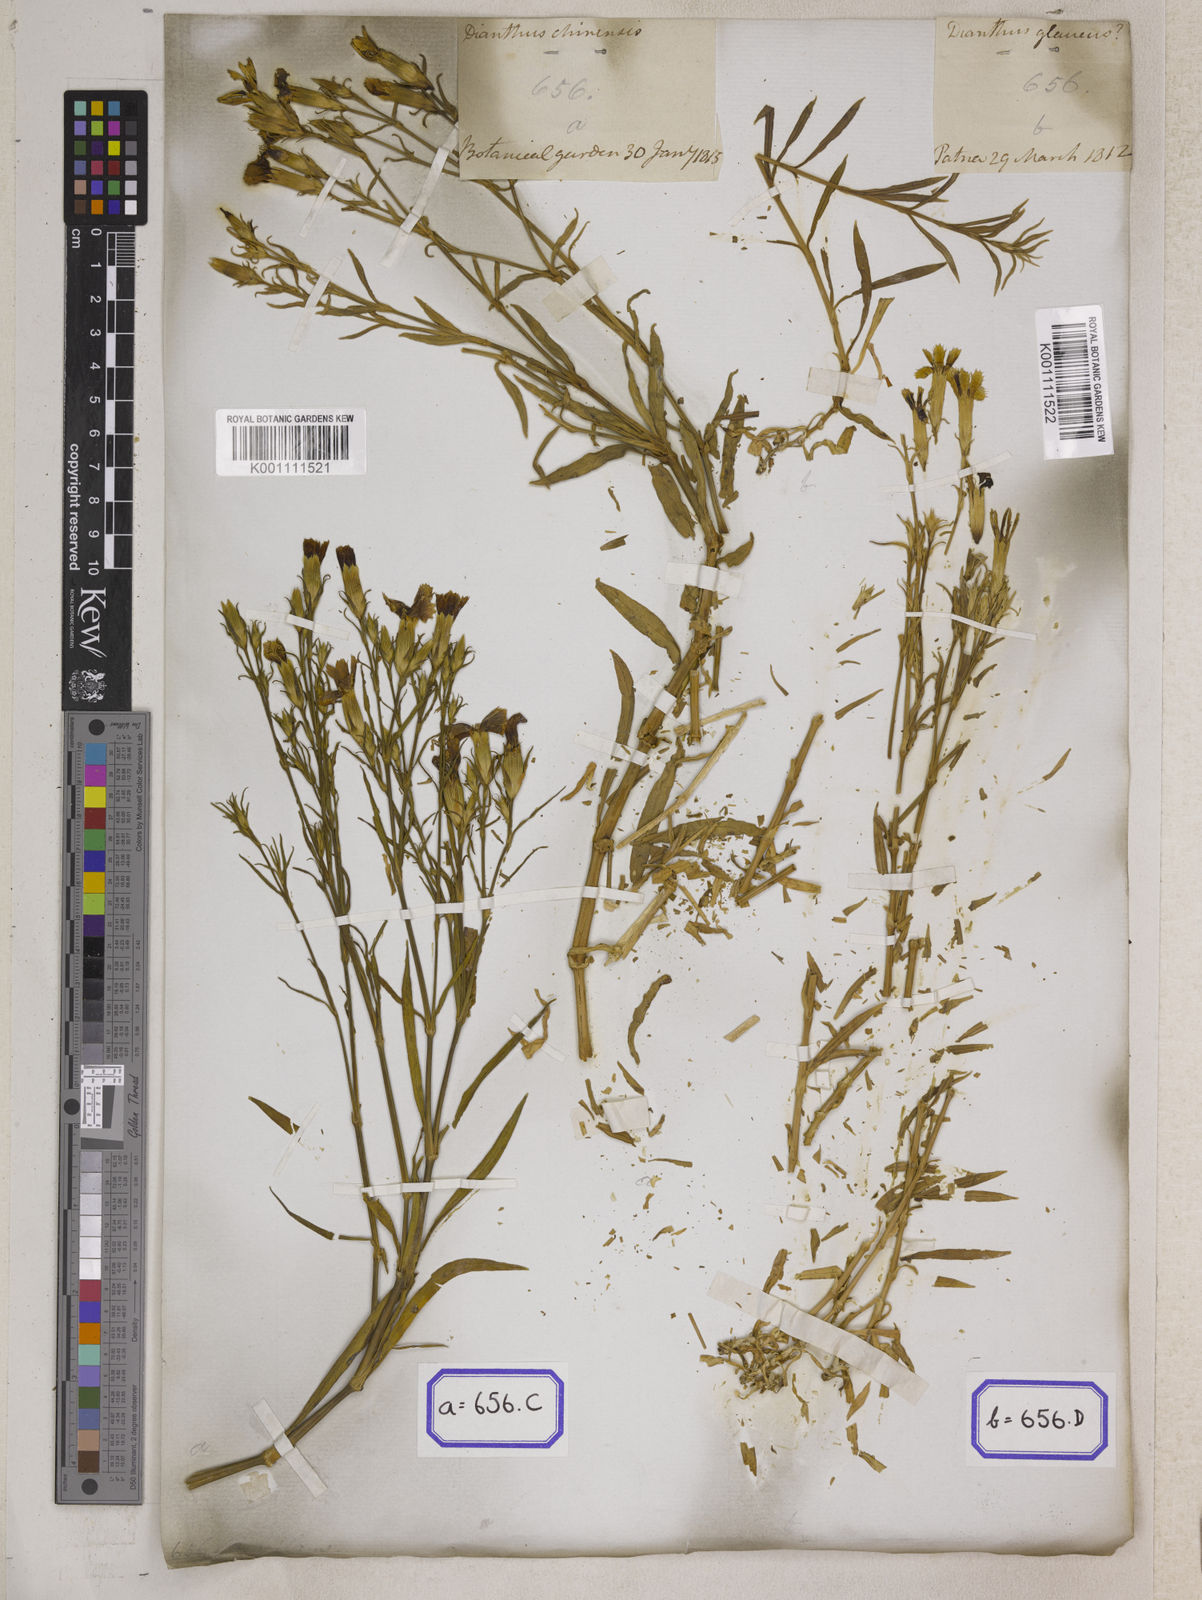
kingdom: Plantae
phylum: Tracheophyta
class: Magnoliopsida
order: Caryophyllales
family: Caryophyllaceae
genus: Dianthus
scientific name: Dianthus chinensis
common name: Rainbow pink
